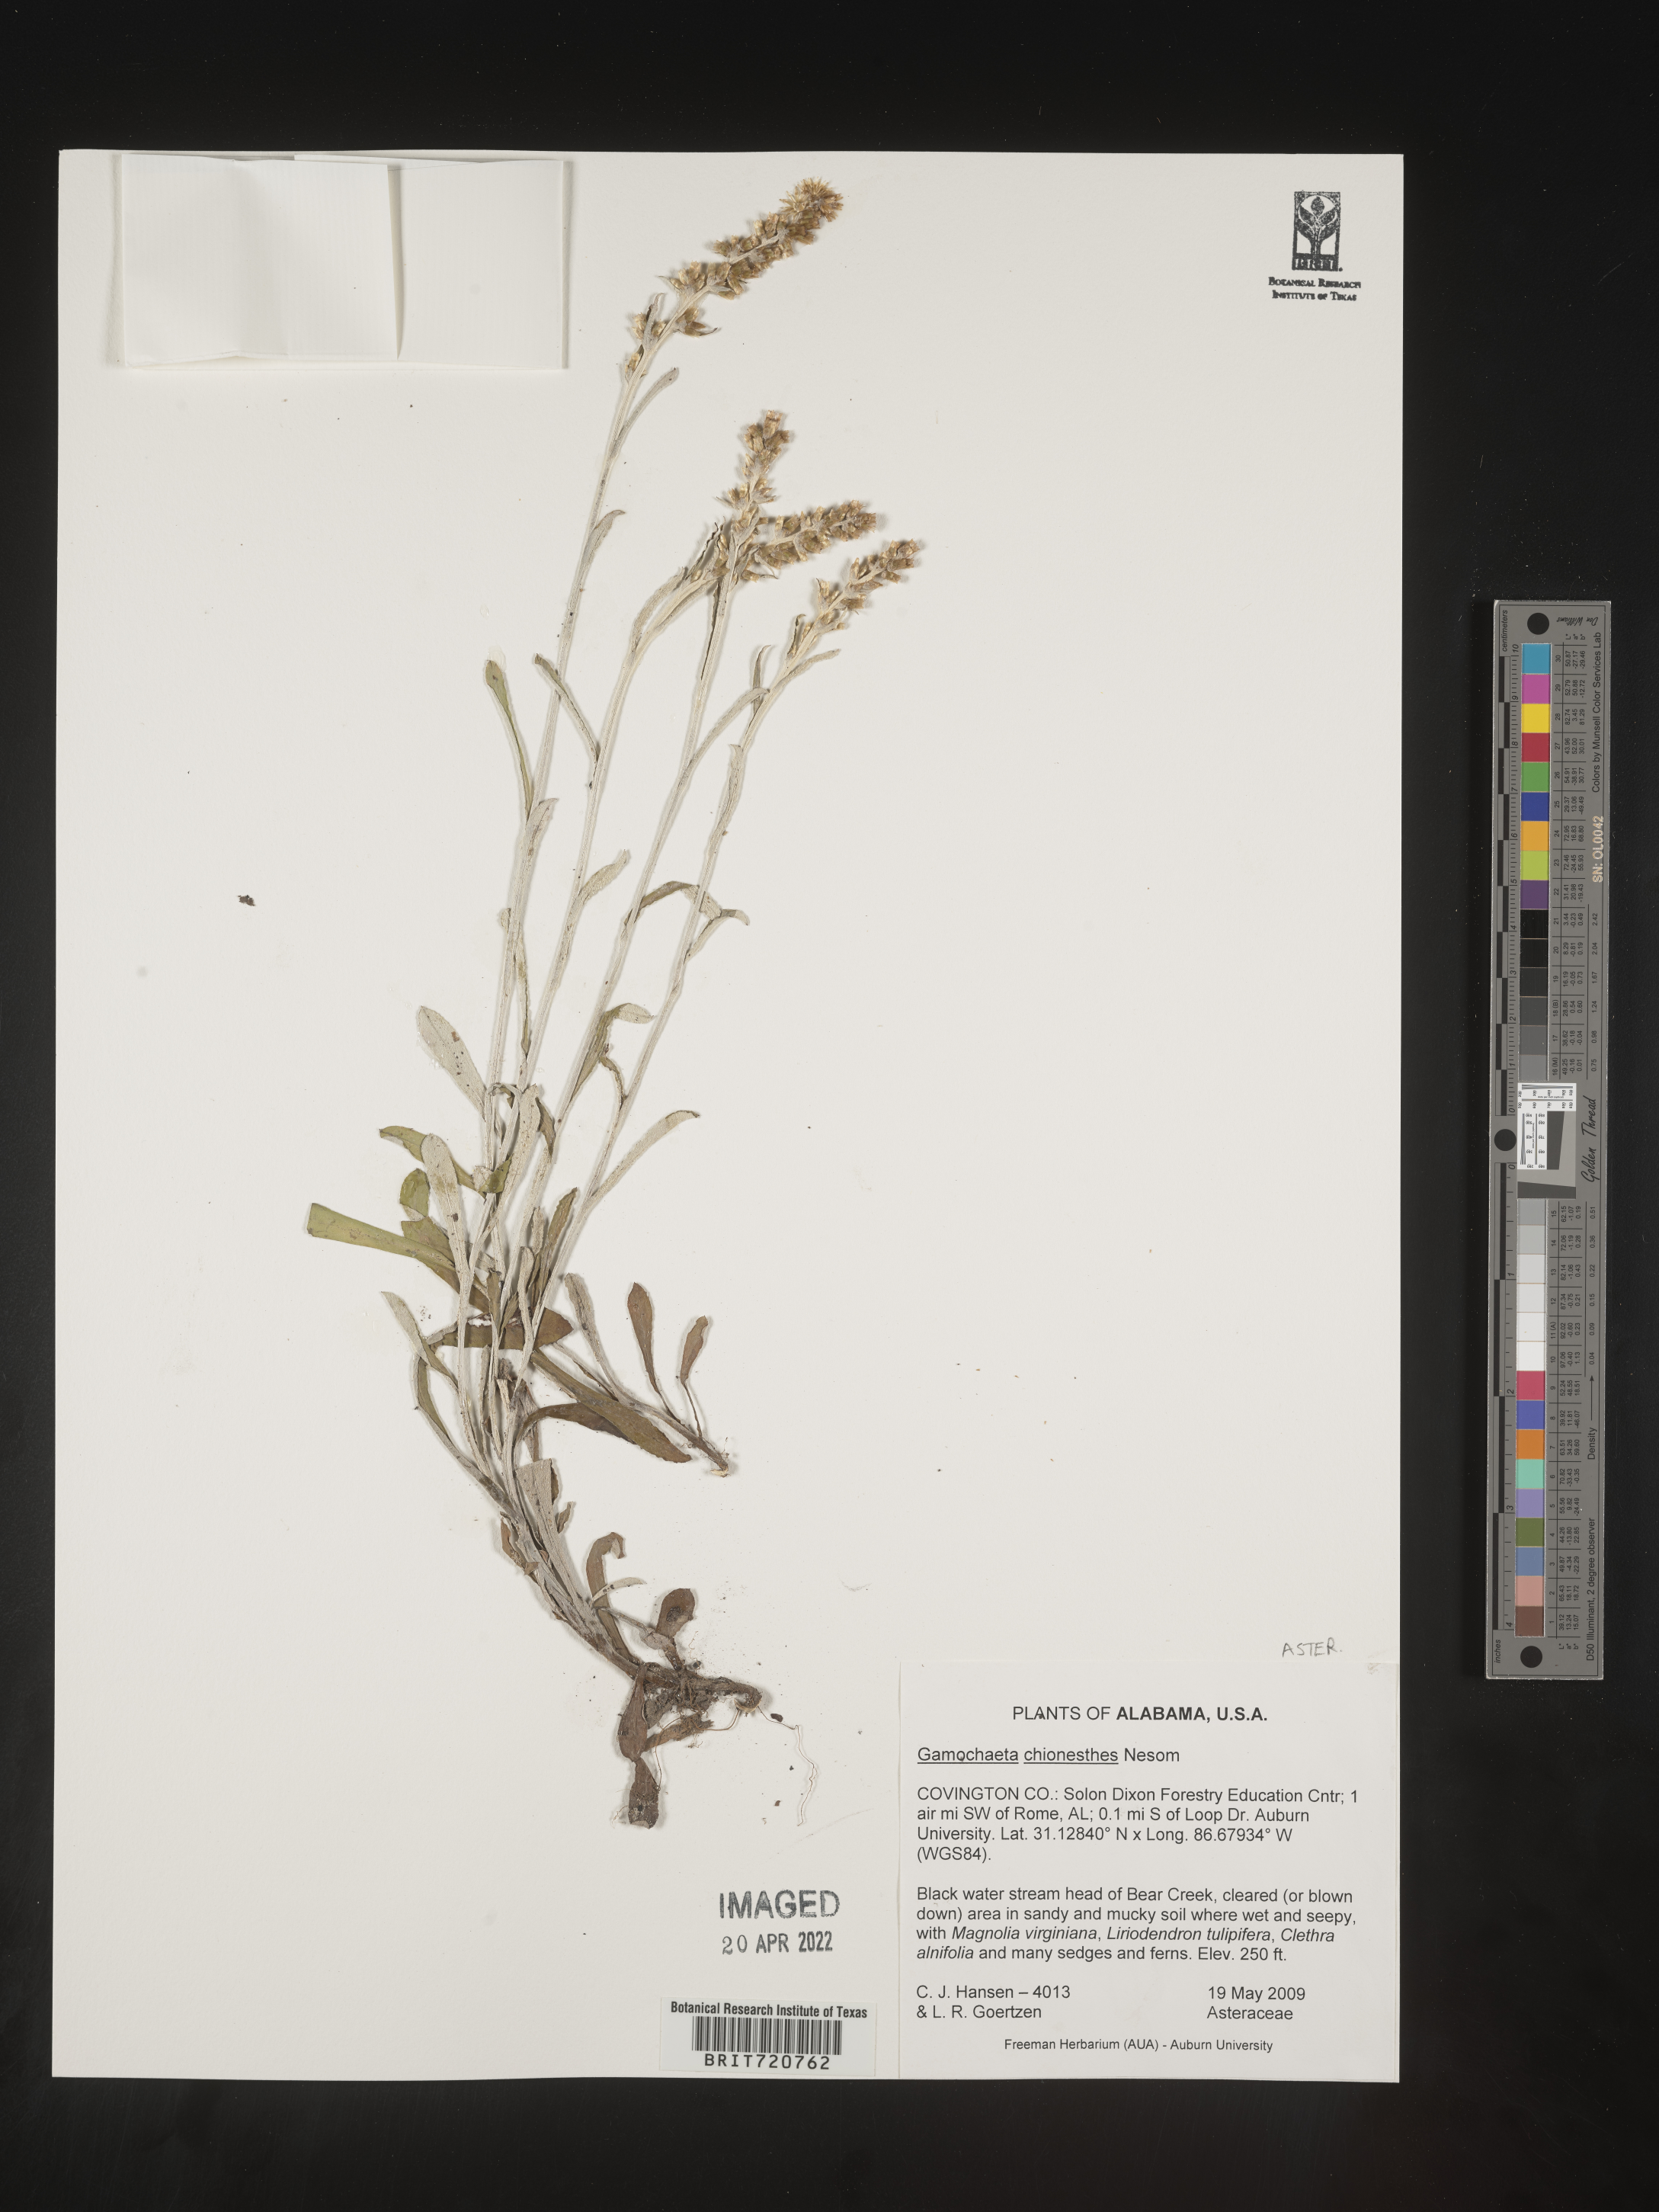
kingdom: Plantae
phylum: Tracheophyta
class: Magnoliopsida
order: Asterales
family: Asteraceae
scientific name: Asteraceae
